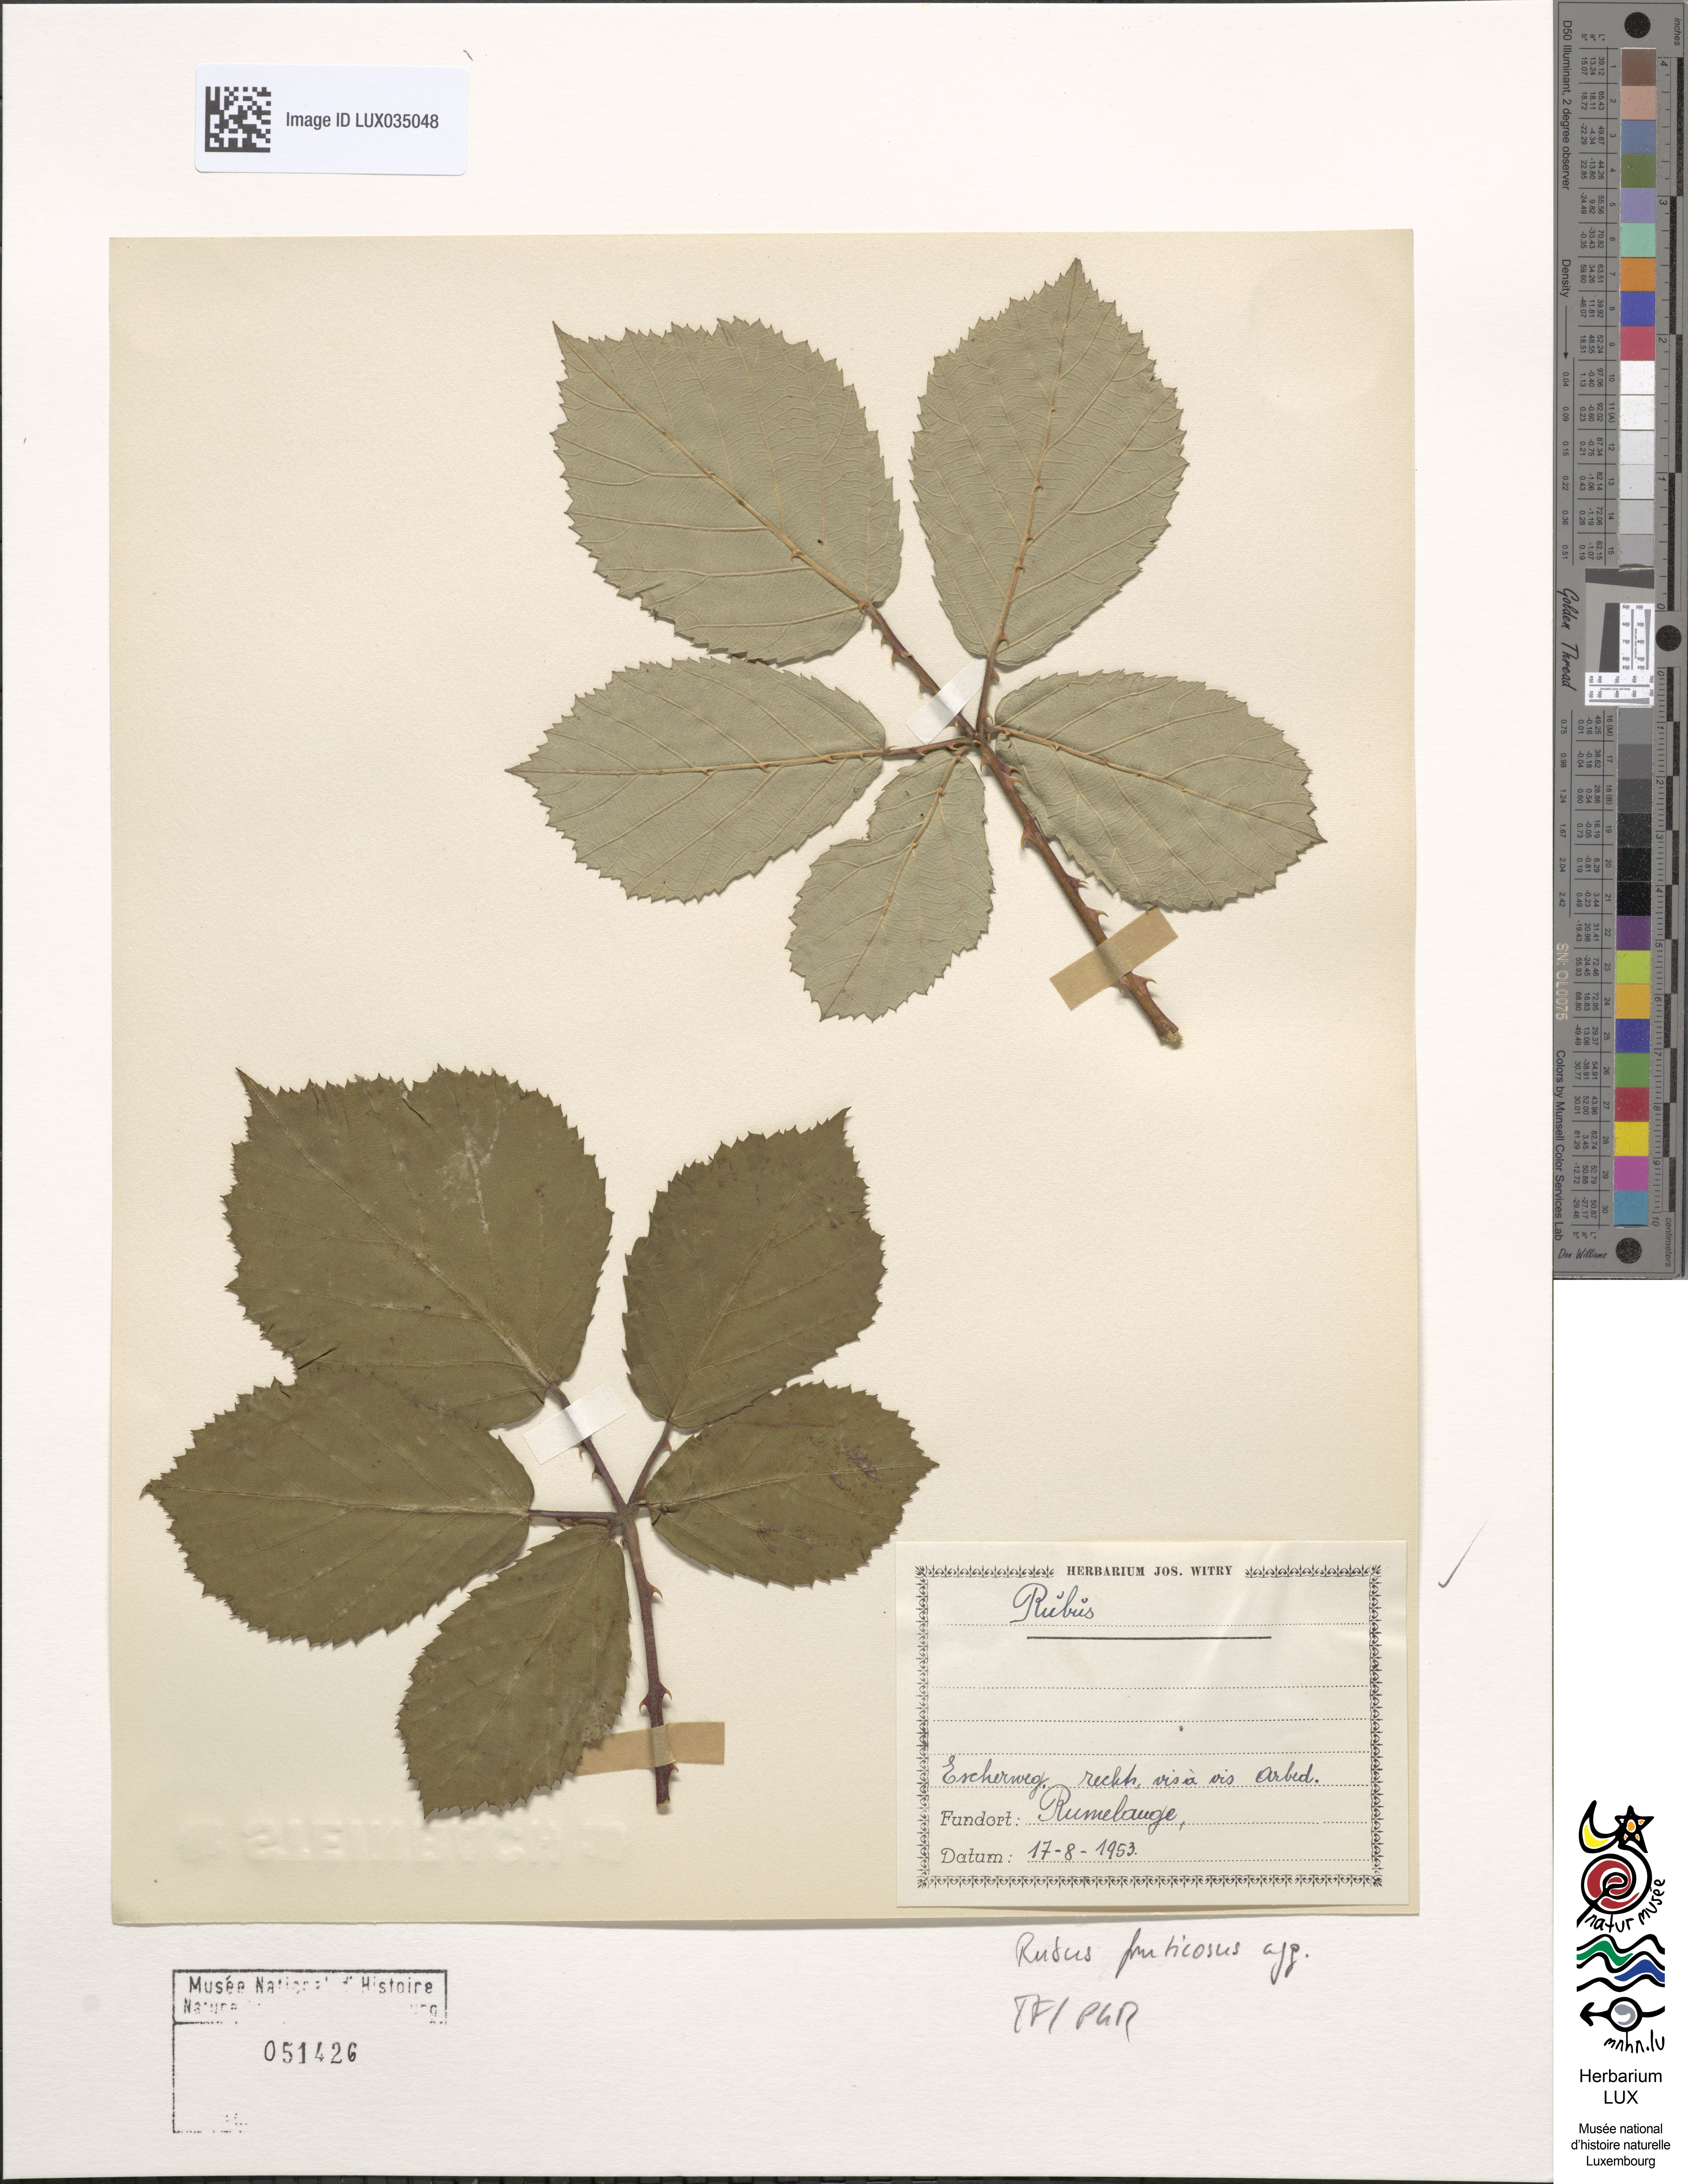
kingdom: Plantae
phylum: Tracheophyta
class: Magnoliopsida
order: Rosales
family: Rosaceae
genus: Rubus
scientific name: Rubus fruticosus
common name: Blackberry, bramble
